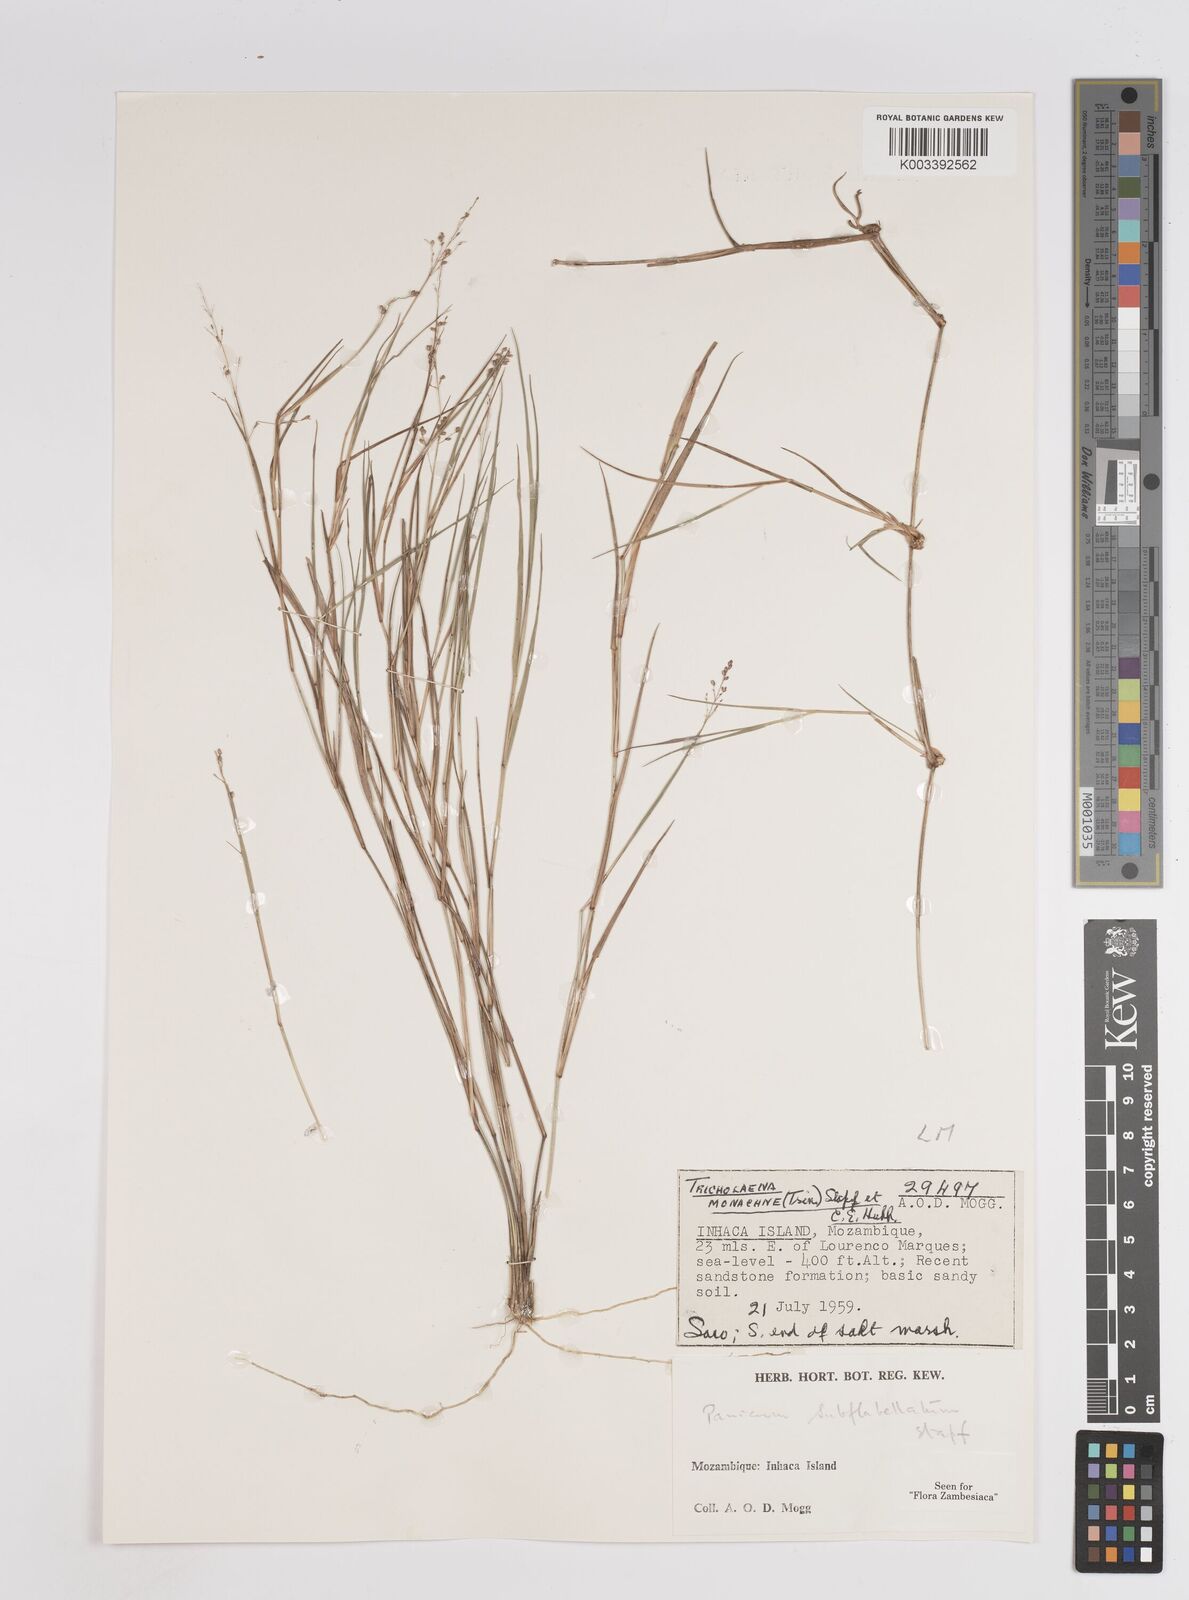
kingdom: Plantae
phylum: Tracheophyta
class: Liliopsida
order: Poales
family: Poaceae
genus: Panicum
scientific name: Panicum subflabellatum
